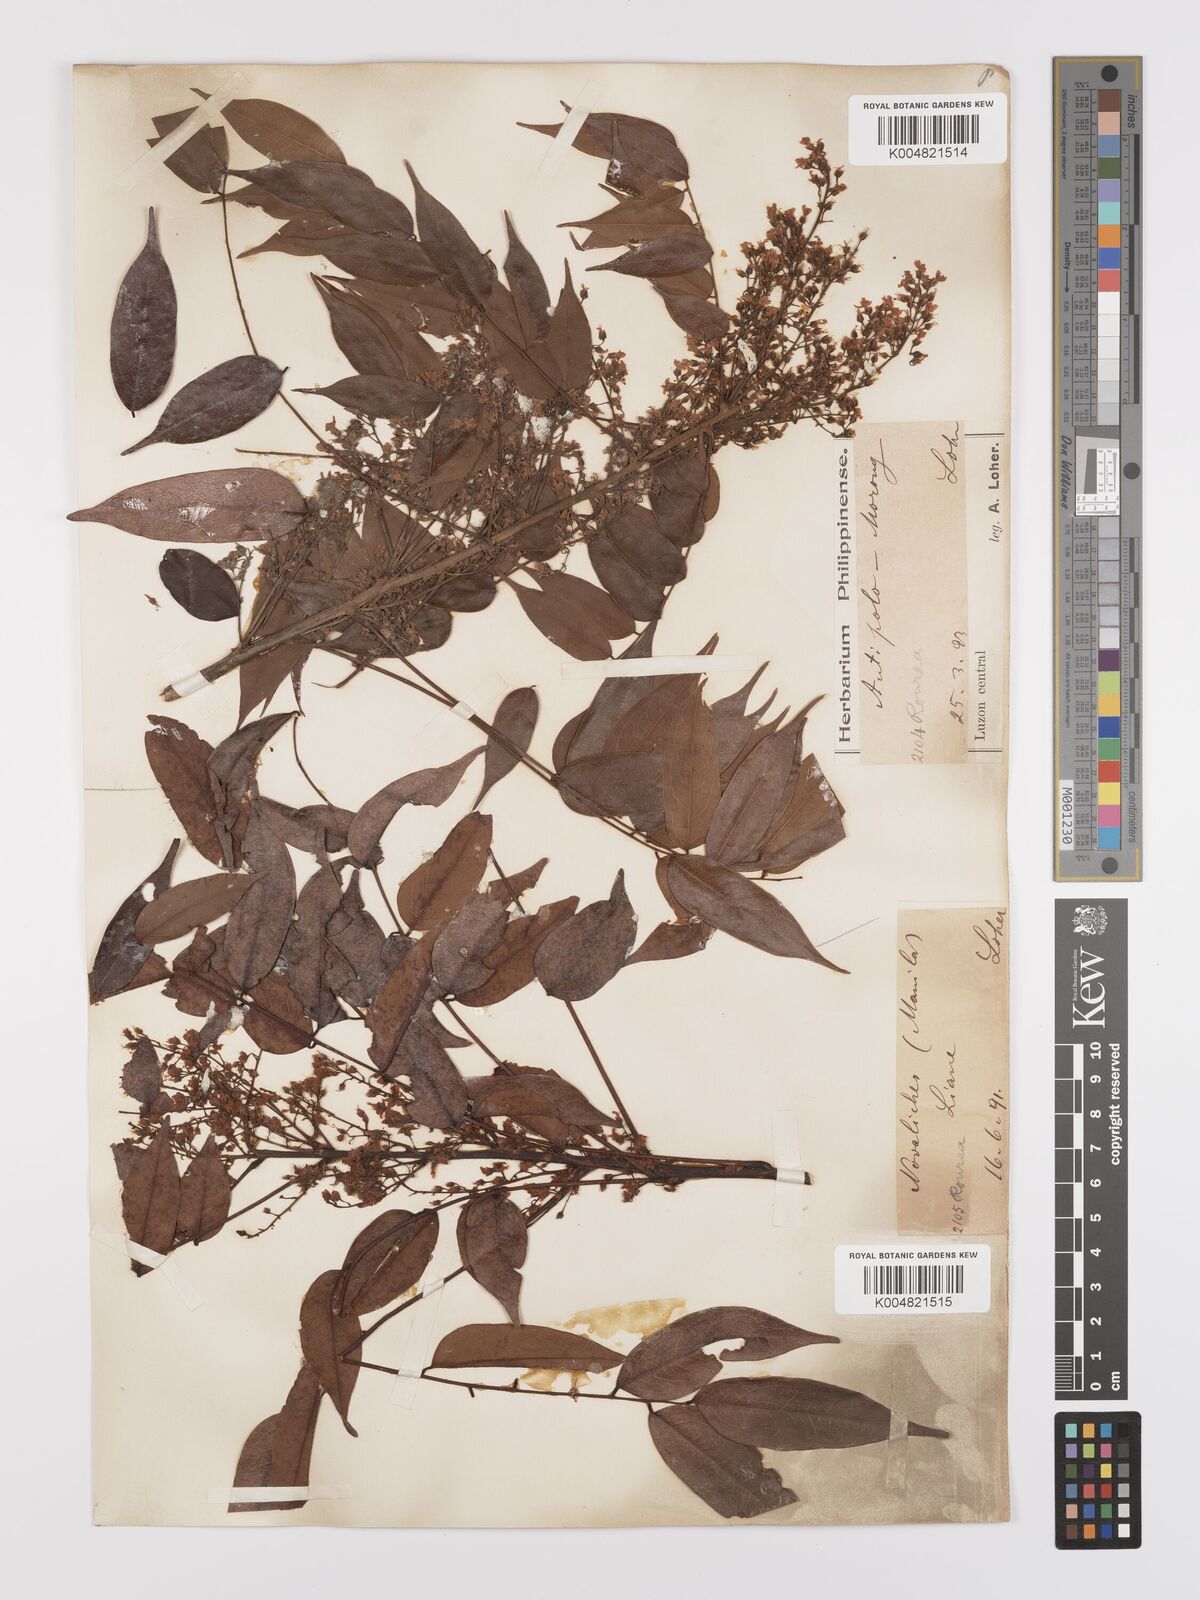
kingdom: Plantae
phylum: Tracheophyta
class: Magnoliopsida
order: Oxalidales
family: Connaraceae
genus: Rourea
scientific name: Rourea minor
